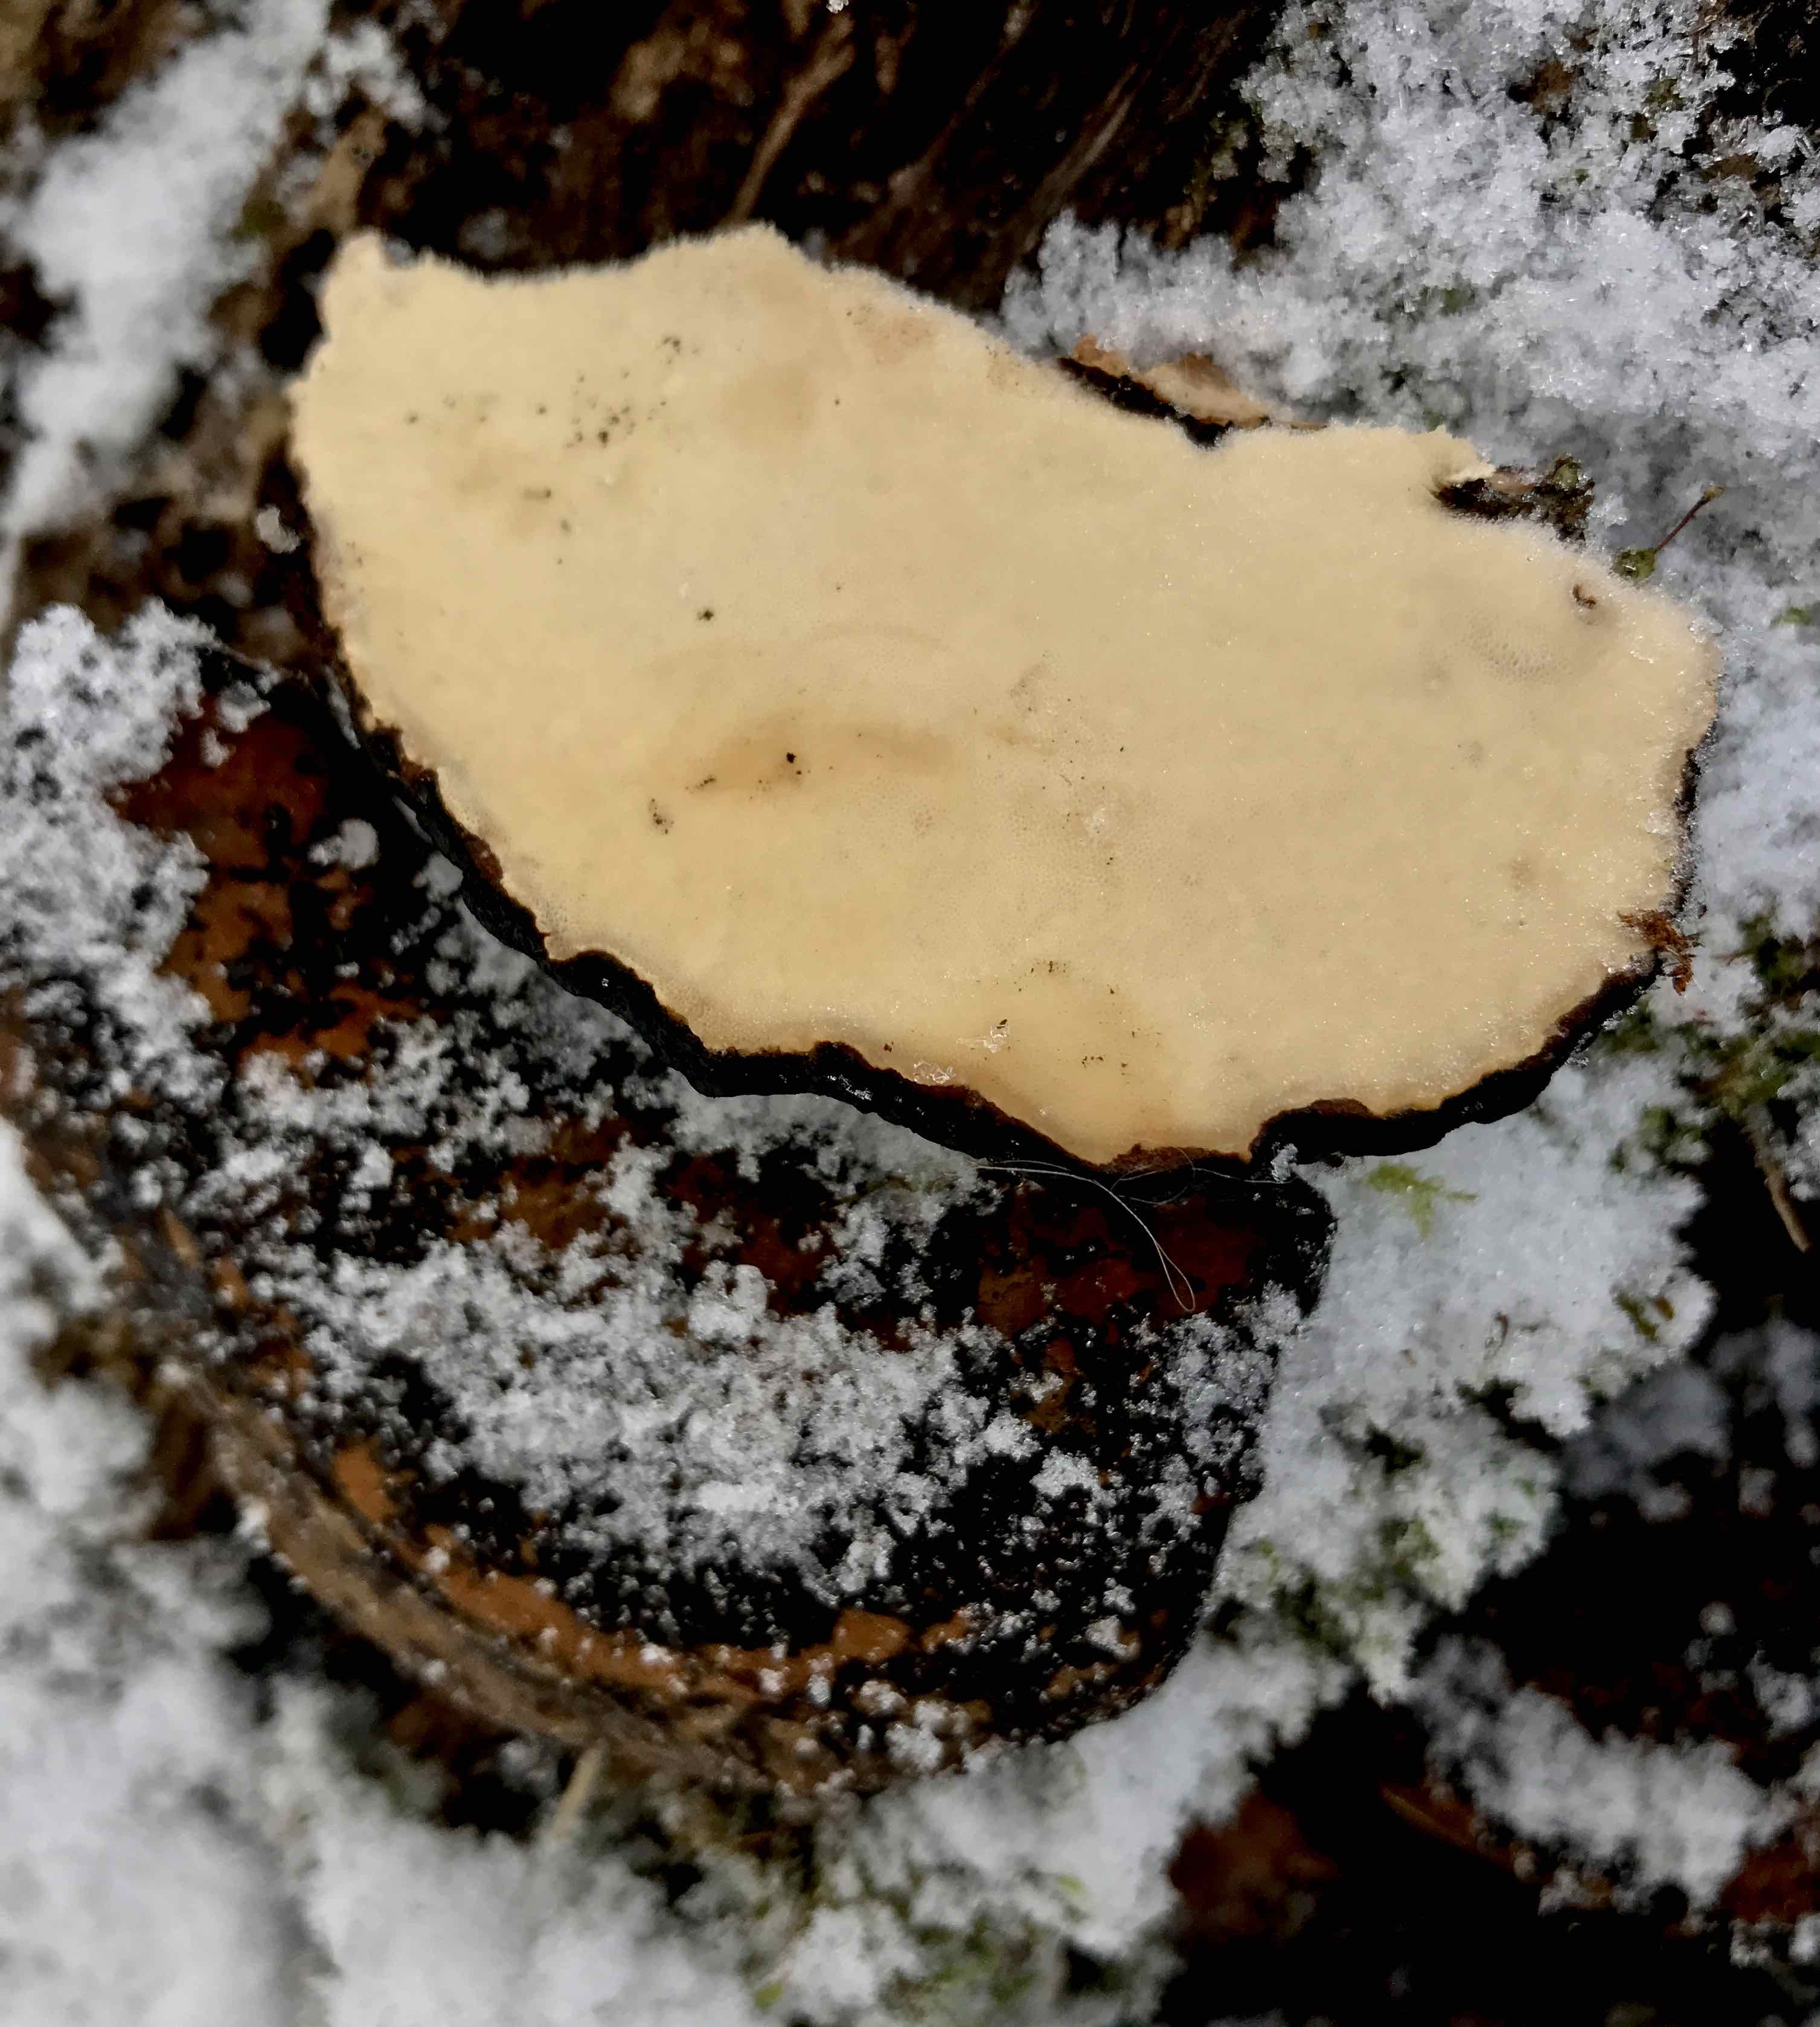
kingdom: Fungi
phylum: Basidiomycota
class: Agaricomycetes
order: Polyporales
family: Ischnodermataceae
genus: Ischnoderma
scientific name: Ischnoderma resinosum
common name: løv-tjæreporesvamp
